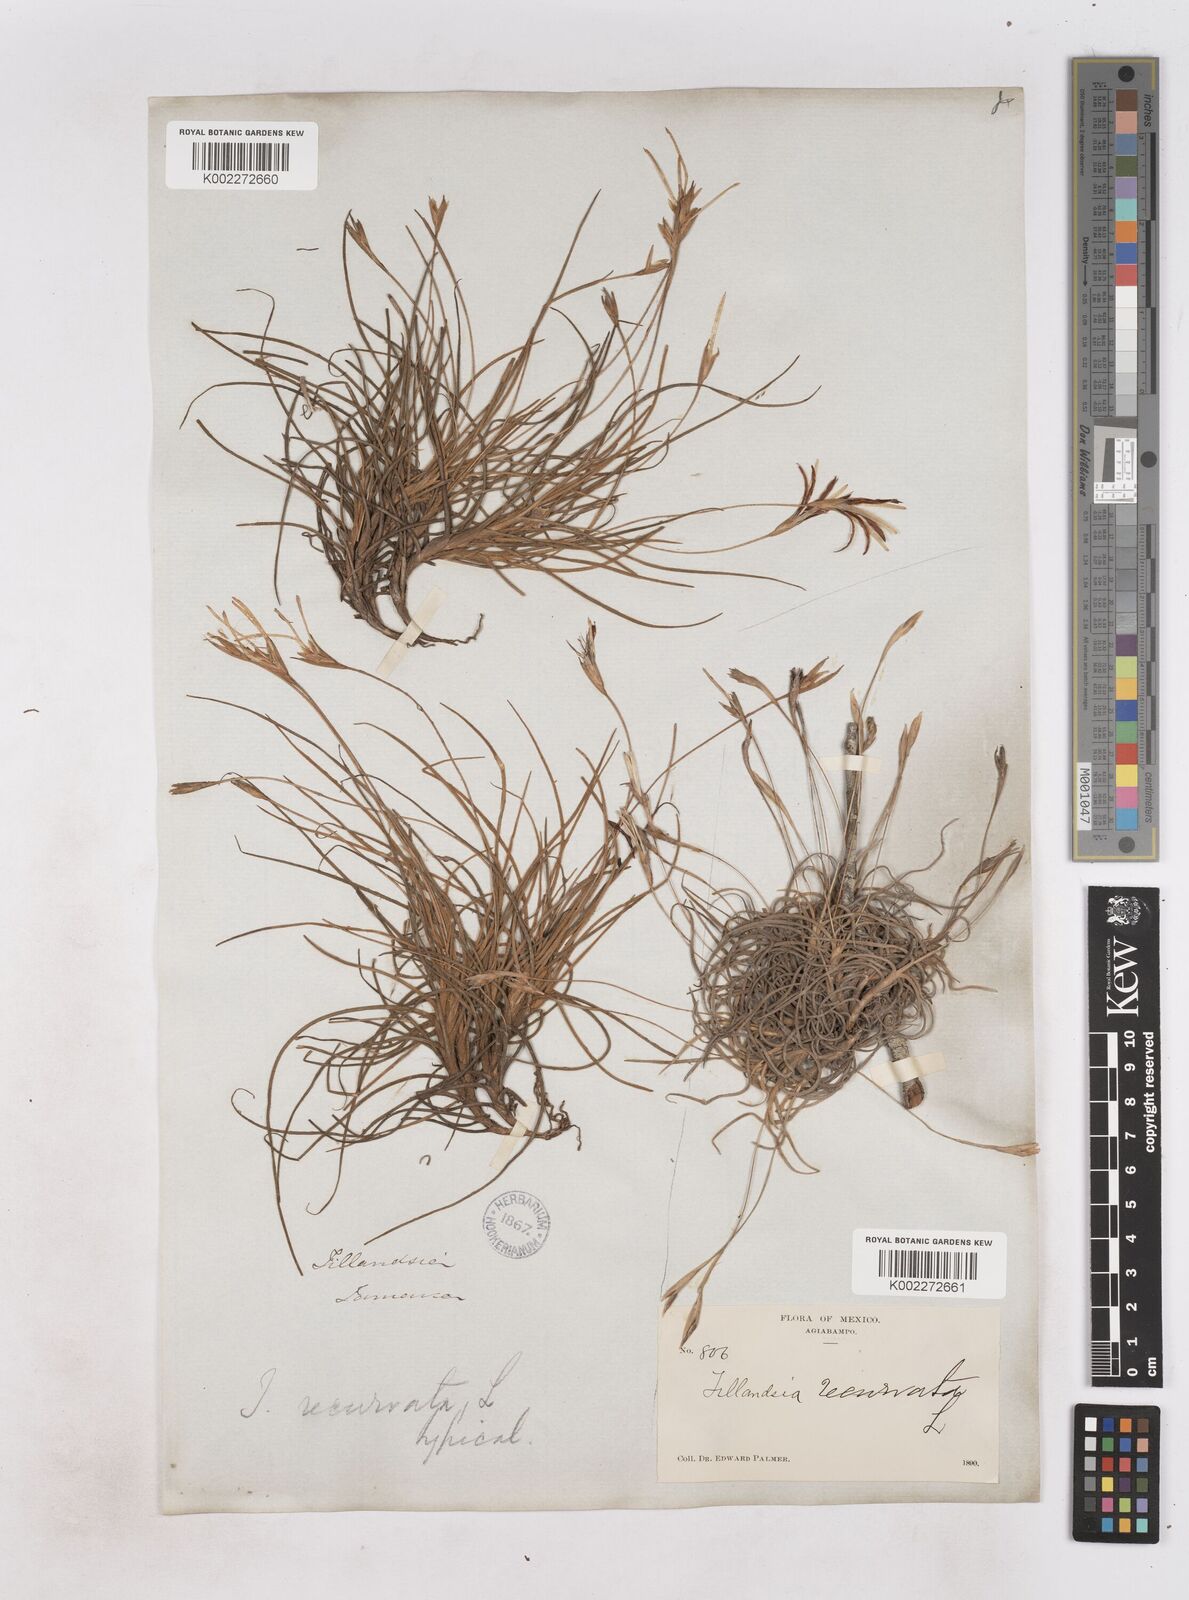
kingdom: Plantae
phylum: Tracheophyta
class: Liliopsida
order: Poales
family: Bromeliaceae
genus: Tillandsia
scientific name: Tillandsia recurvata
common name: Small ballmoss
